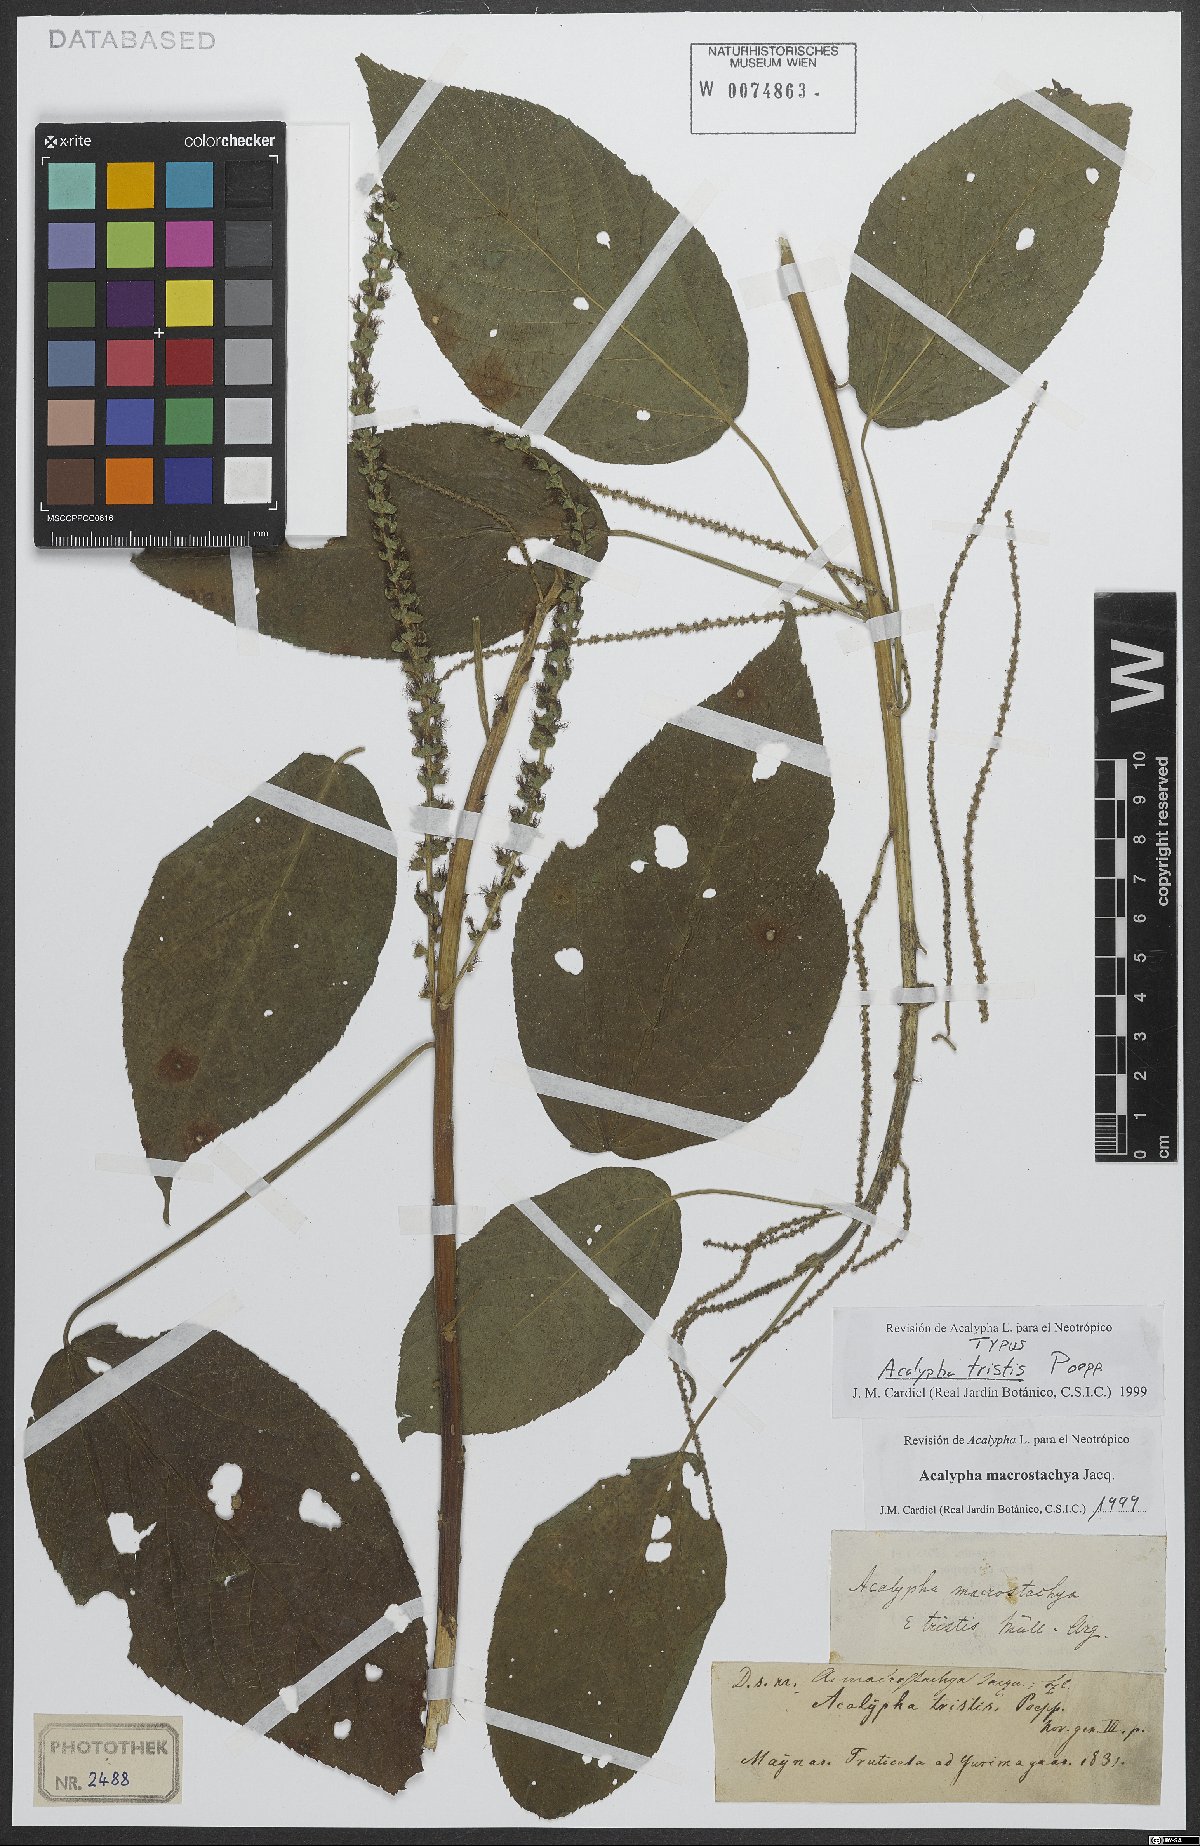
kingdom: Plantae
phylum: Tracheophyta
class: Magnoliopsida
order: Malpighiales
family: Euphorbiaceae
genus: Acalypha
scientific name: Acalypha macrostachya
